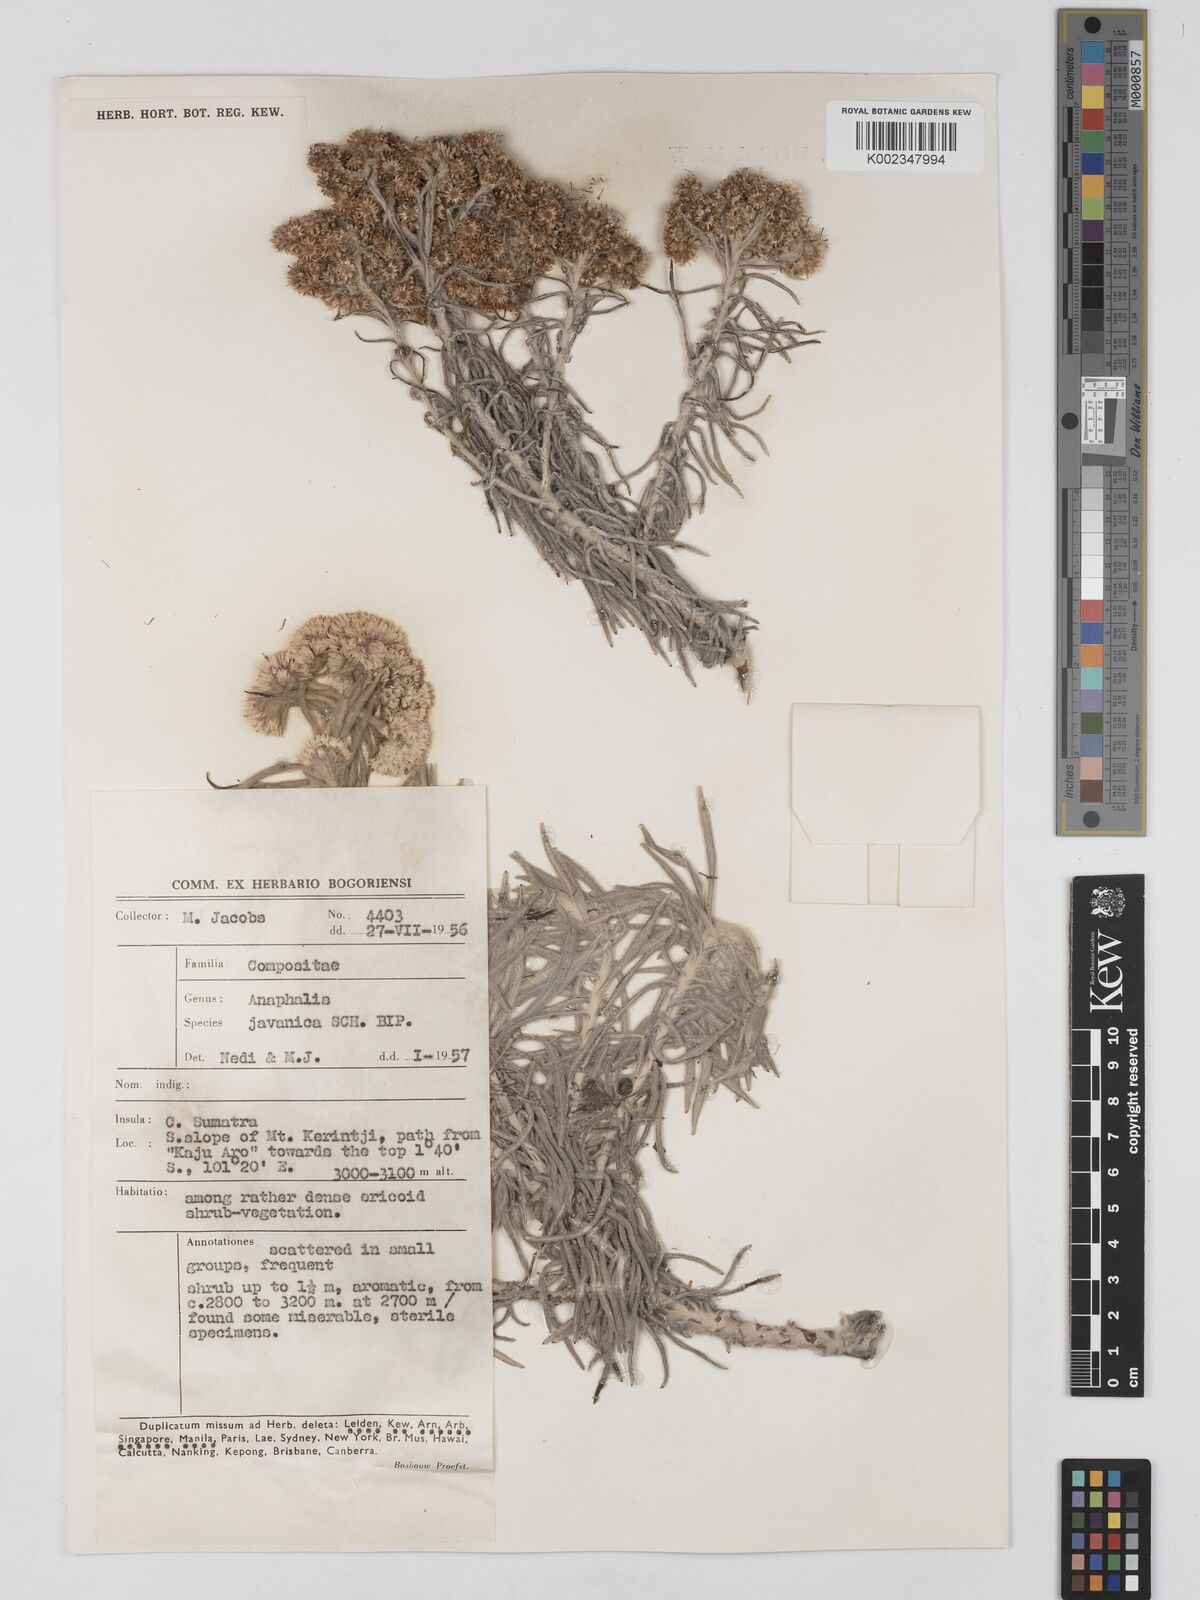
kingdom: Plantae
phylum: Tracheophyta
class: Magnoliopsida
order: Asterales
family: Asteraceae
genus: Anaphalis
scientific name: Anaphalis javanica
